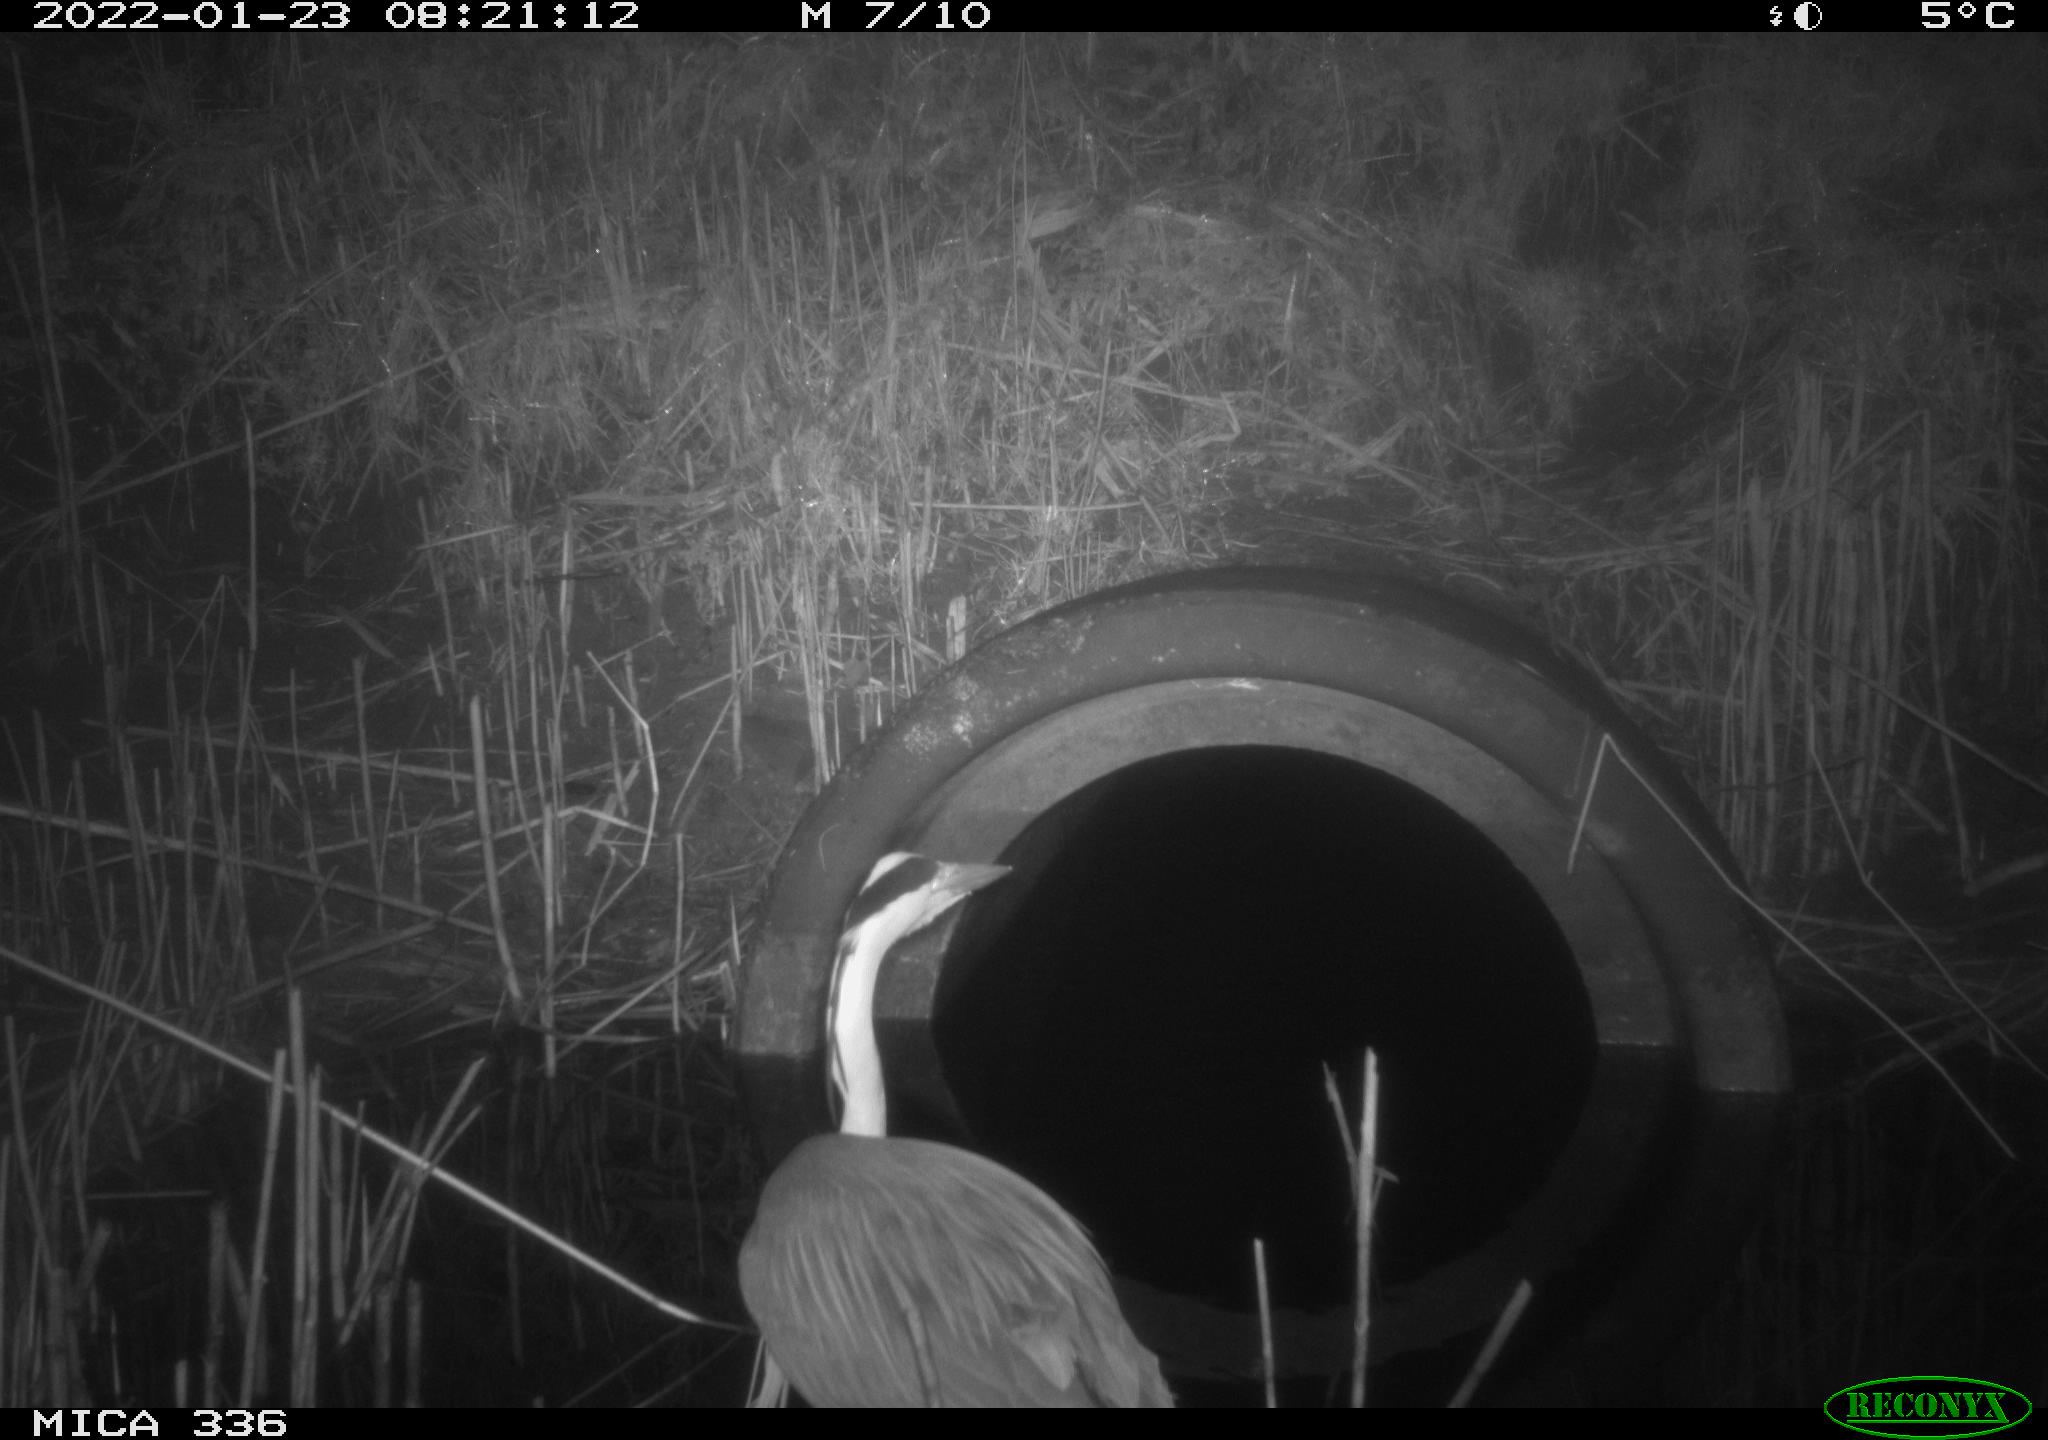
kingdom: Animalia
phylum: Chordata
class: Aves
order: Pelecaniformes
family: Ardeidae
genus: Ardea
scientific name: Ardea cinerea
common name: Grey heron
